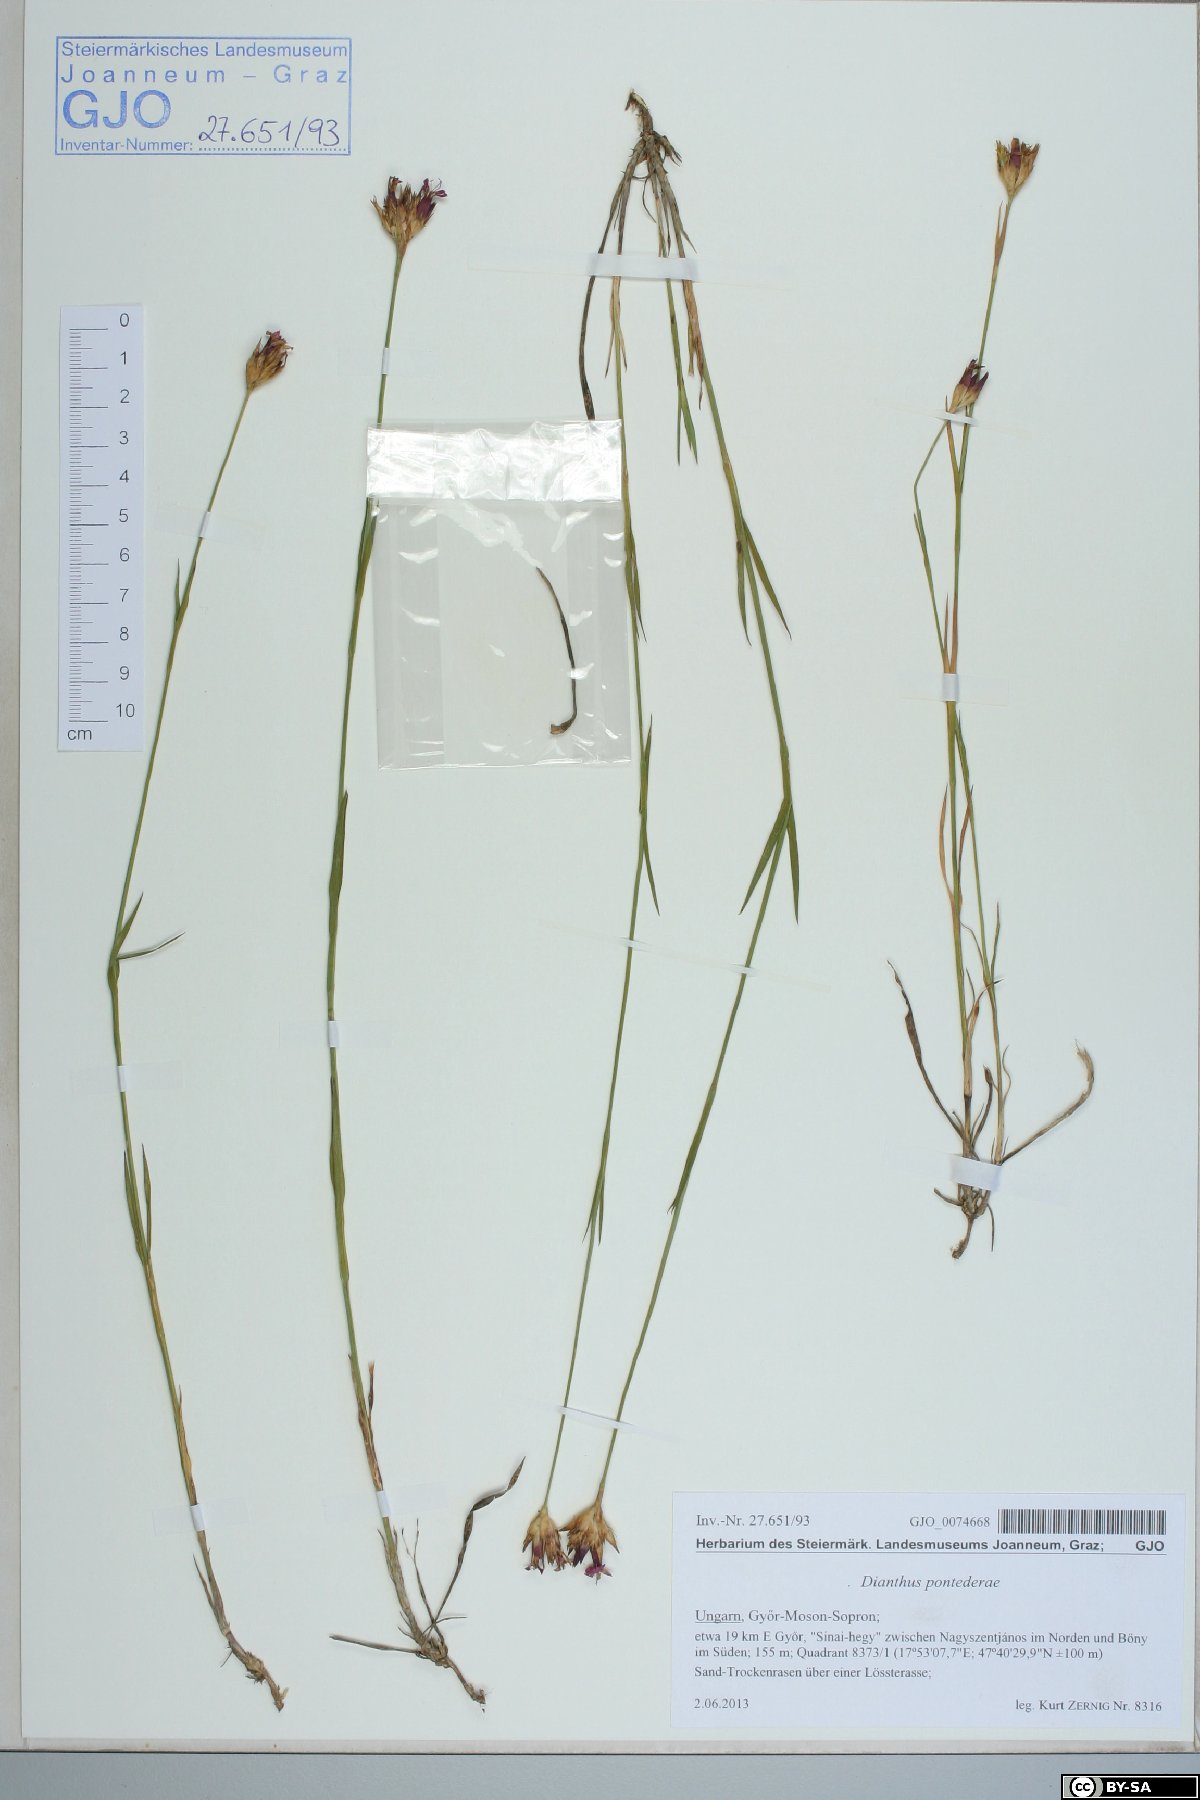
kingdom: Plantae
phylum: Tracheophyta
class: Magnoliopsida
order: Caryophyllales
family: Caryophyllaceae
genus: Dianthus
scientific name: Dianthus pontederae
